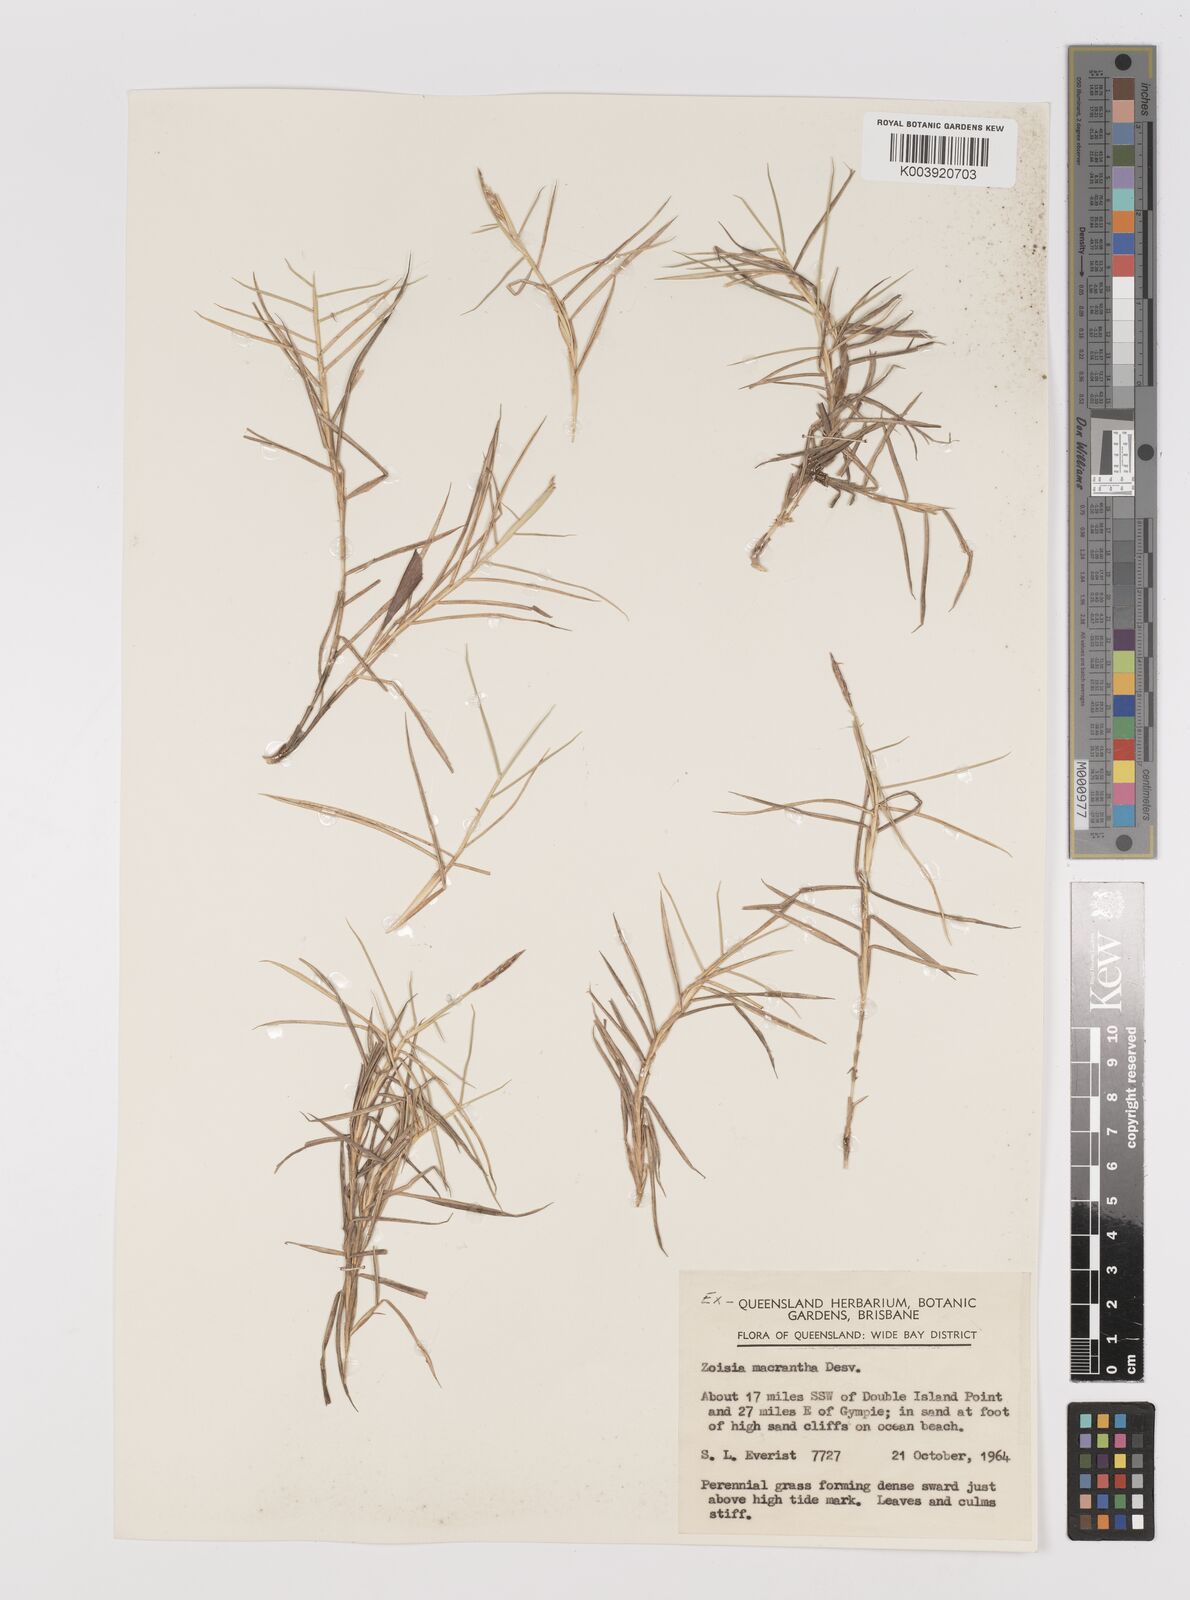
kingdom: Plantae
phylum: Tracheophyta
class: Liliopsida
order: Poales
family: Poaceae
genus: Zoysia
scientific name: Zoysia macrantha
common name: Korean lawn grass
